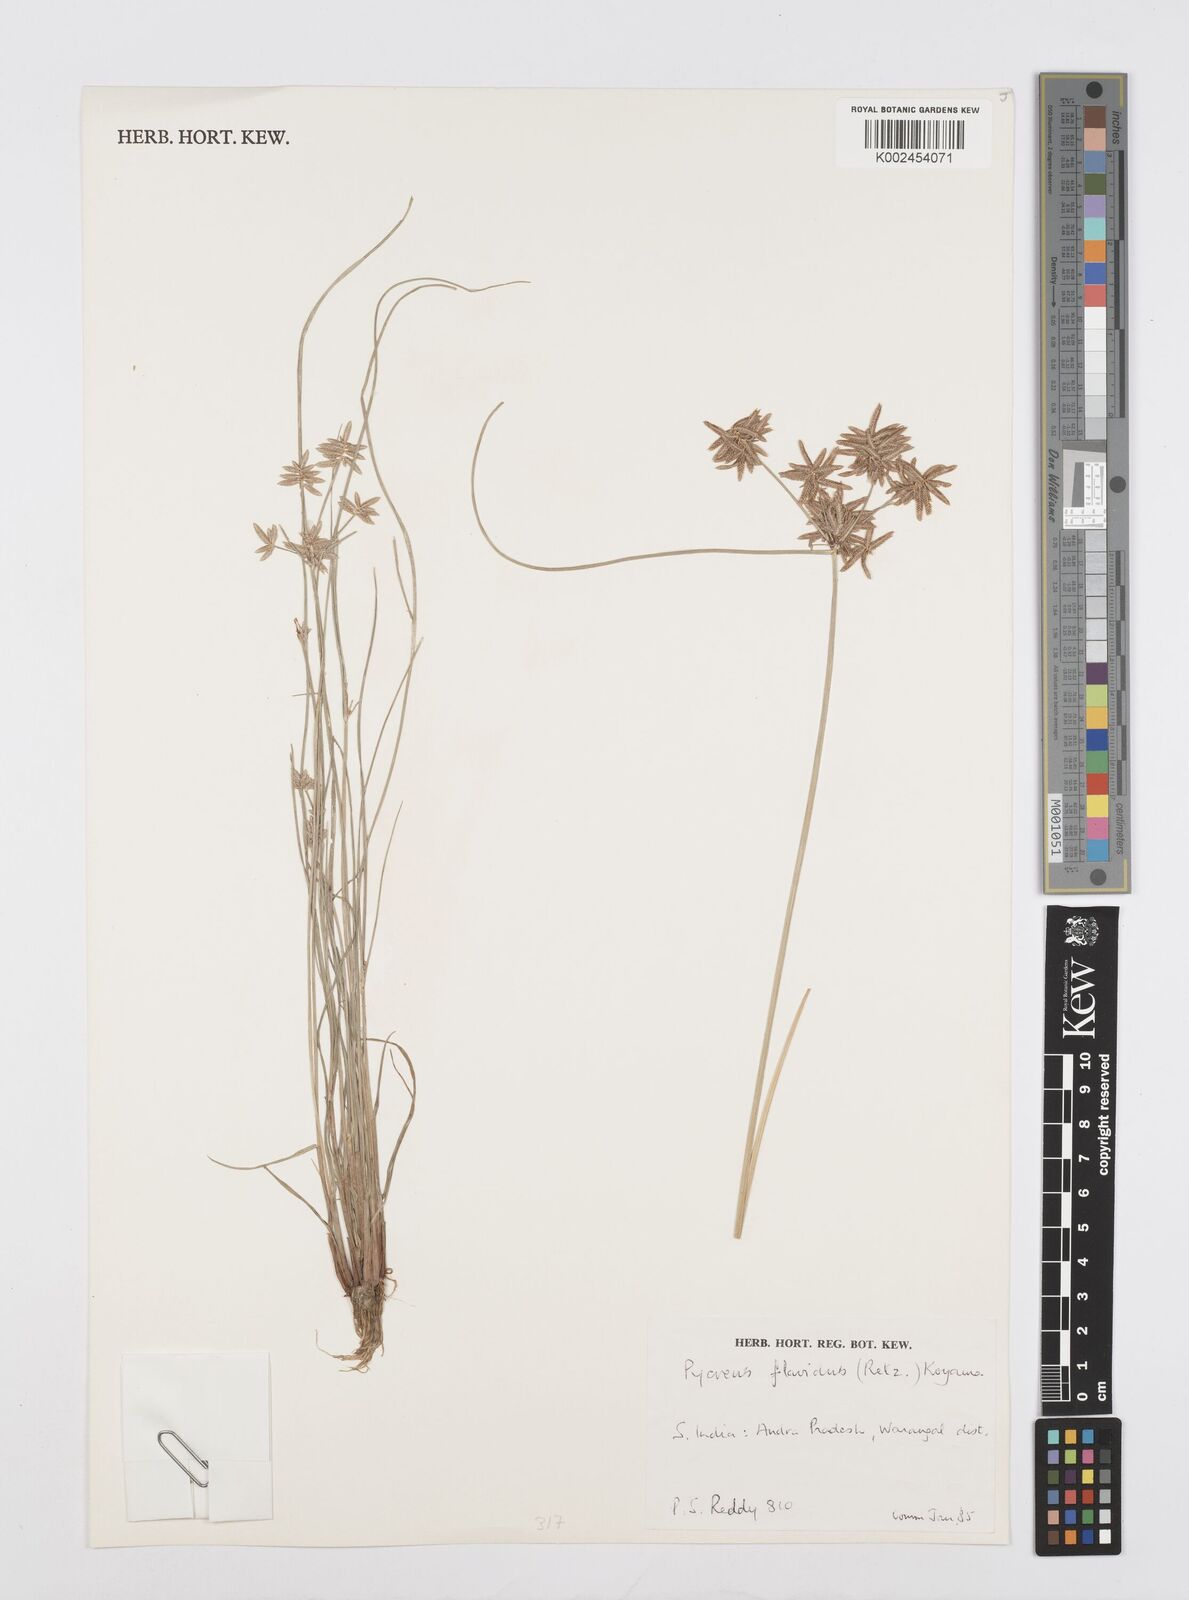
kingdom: Plantae
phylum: Tracheophyta
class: Liliopsida
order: Poales
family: Cyperaceae
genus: Cyperus
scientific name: Cyperus flavidus
